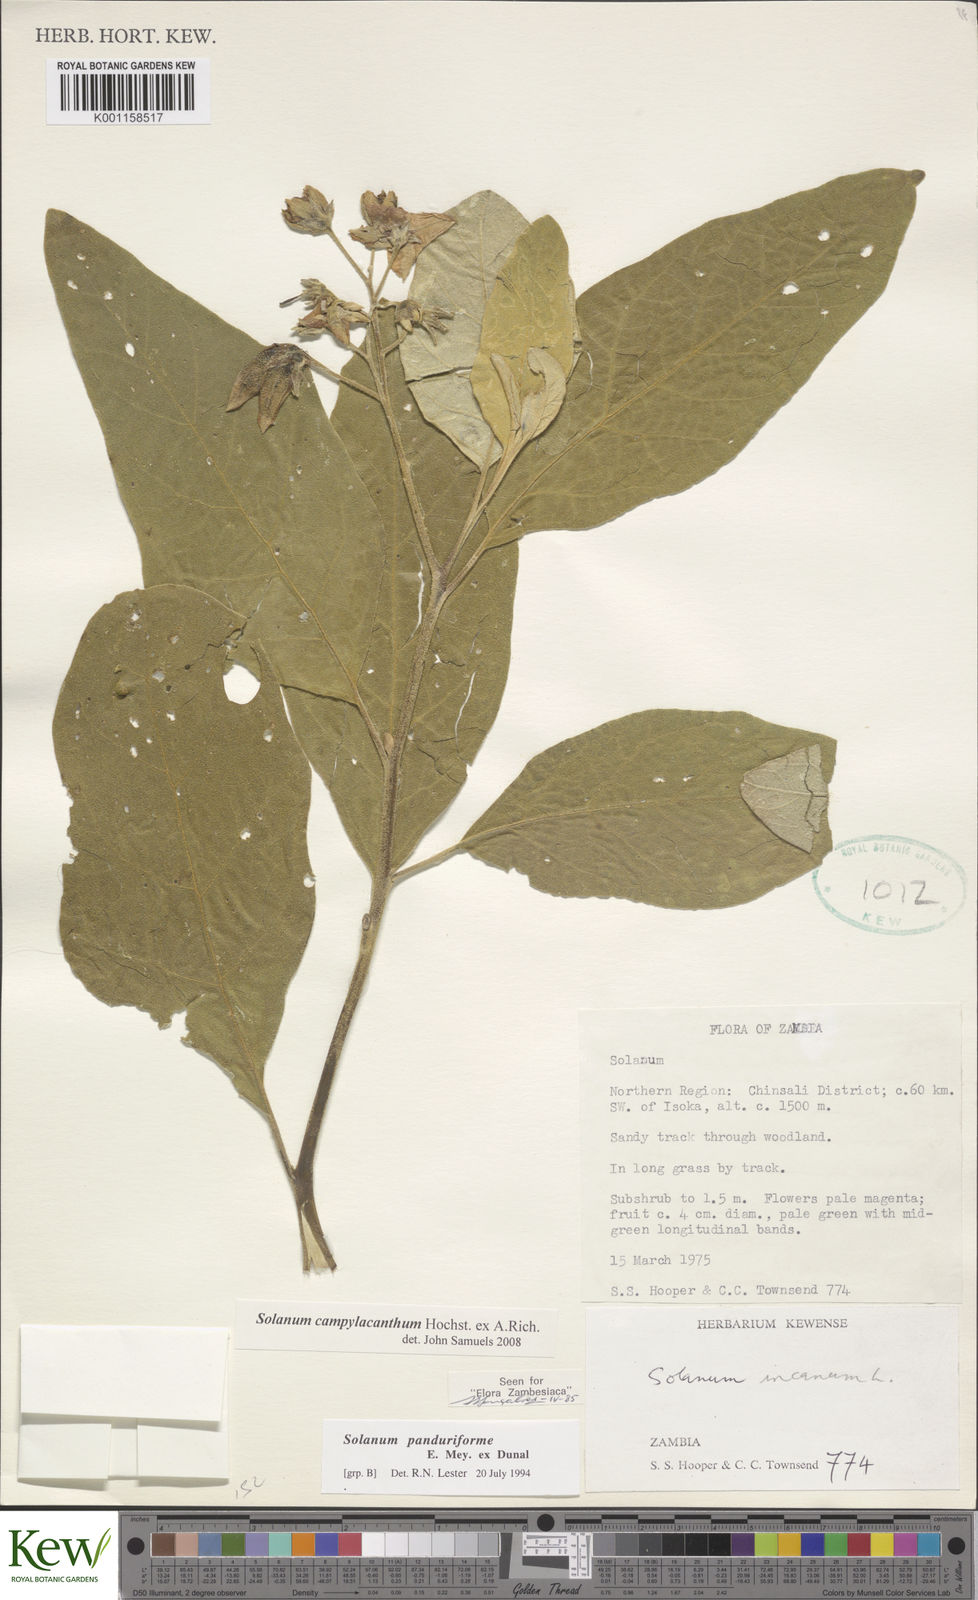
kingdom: Plantae
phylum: Tracheophyta
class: Magnoliopsida
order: Solanales
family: Solanaceae
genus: Solanum
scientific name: Solanum campylacanthum
